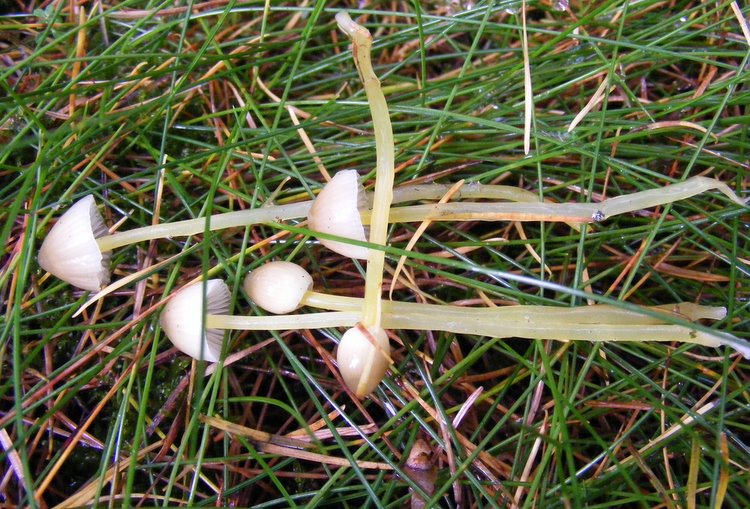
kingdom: Fungi
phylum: Basidiomycota
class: Agaricomycetes
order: Agaricales
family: Mycenaceae
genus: Mycena
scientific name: Mycena epipterygia
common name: gulstokket huesvamp
